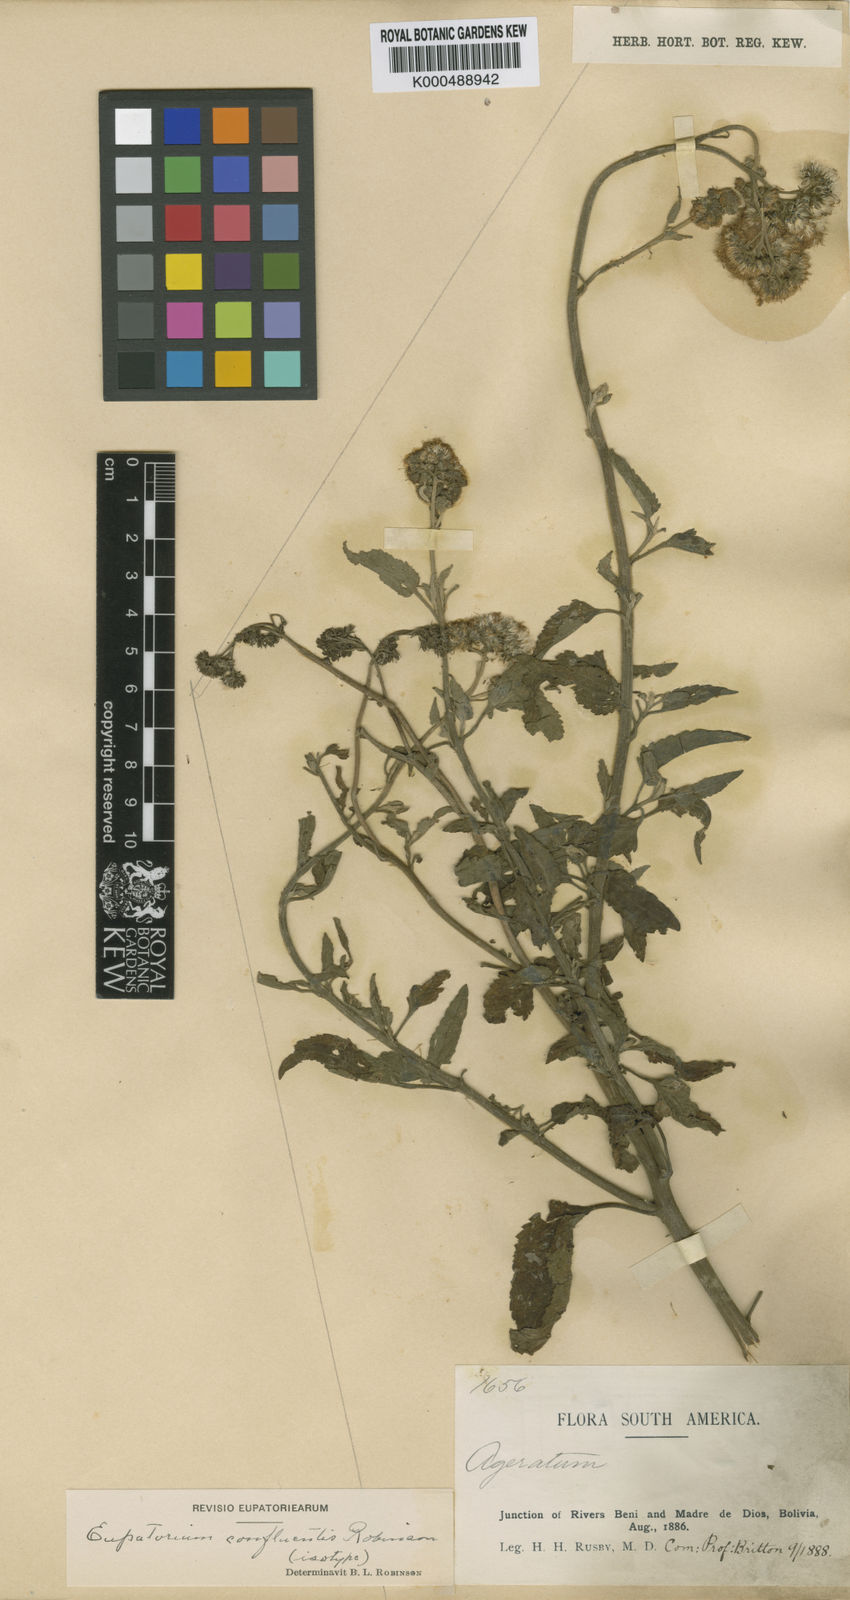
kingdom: Plantae
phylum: Tracheophyta
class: Magnoliopsida
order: Asterales
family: Asteraceae
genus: Barrosoa
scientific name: Barrosoa confluentis
